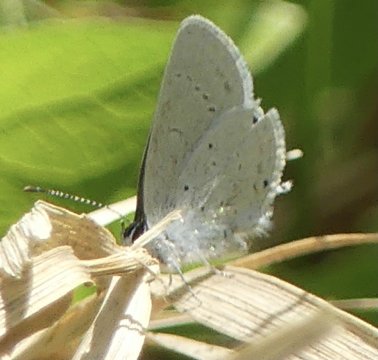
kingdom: Animalia
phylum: Arthropoda
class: Insecta
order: Lepidoptera
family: Lycaenidae
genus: Elkalyce
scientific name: Elkalyce amyntula
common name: Western Tailed-Blue
